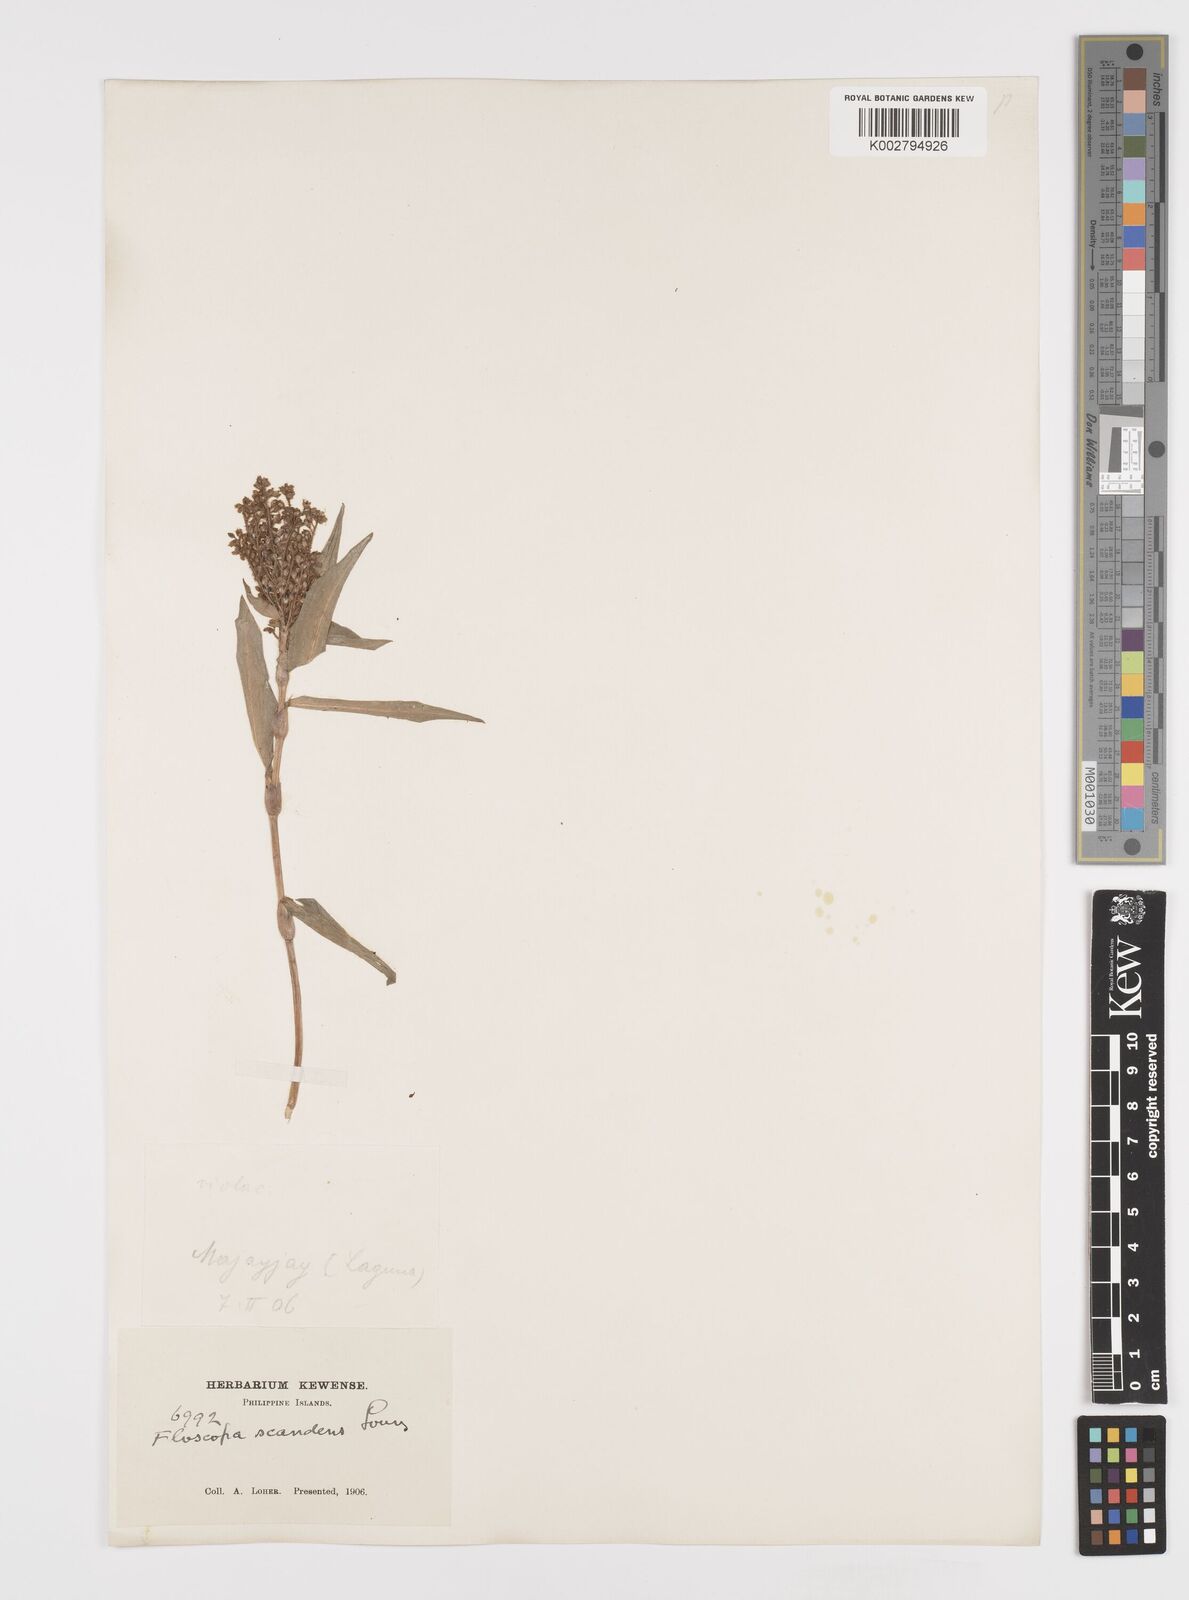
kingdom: Plantae
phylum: Tracheophyta
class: Liliopsida
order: Commelinales
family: Commelinaceae
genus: Floscopa
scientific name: Floscopa scandens
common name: Climbing flower cup
